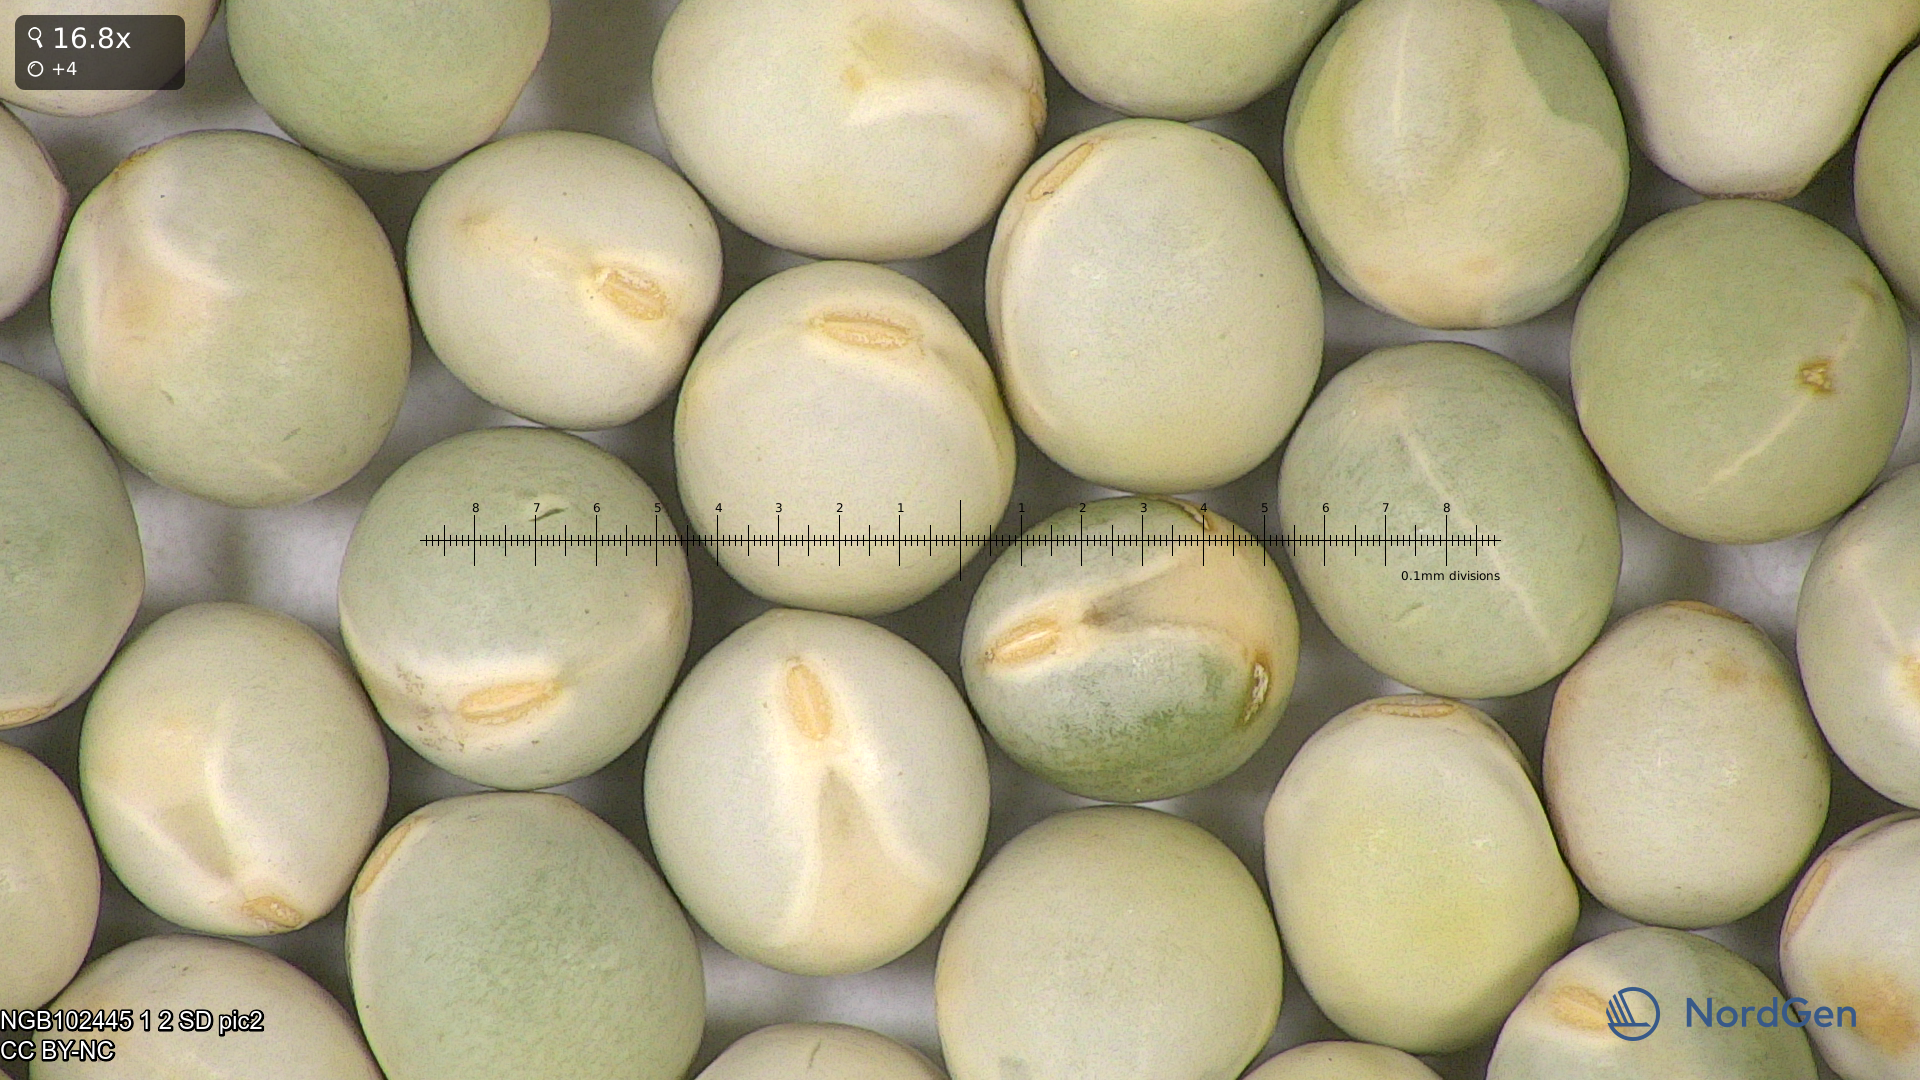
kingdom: Plantae
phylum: Tracheophyta
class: Magnoliopsida
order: Fabales
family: Fabaceae
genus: Lathyrus
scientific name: Lathyrus oleraceus
